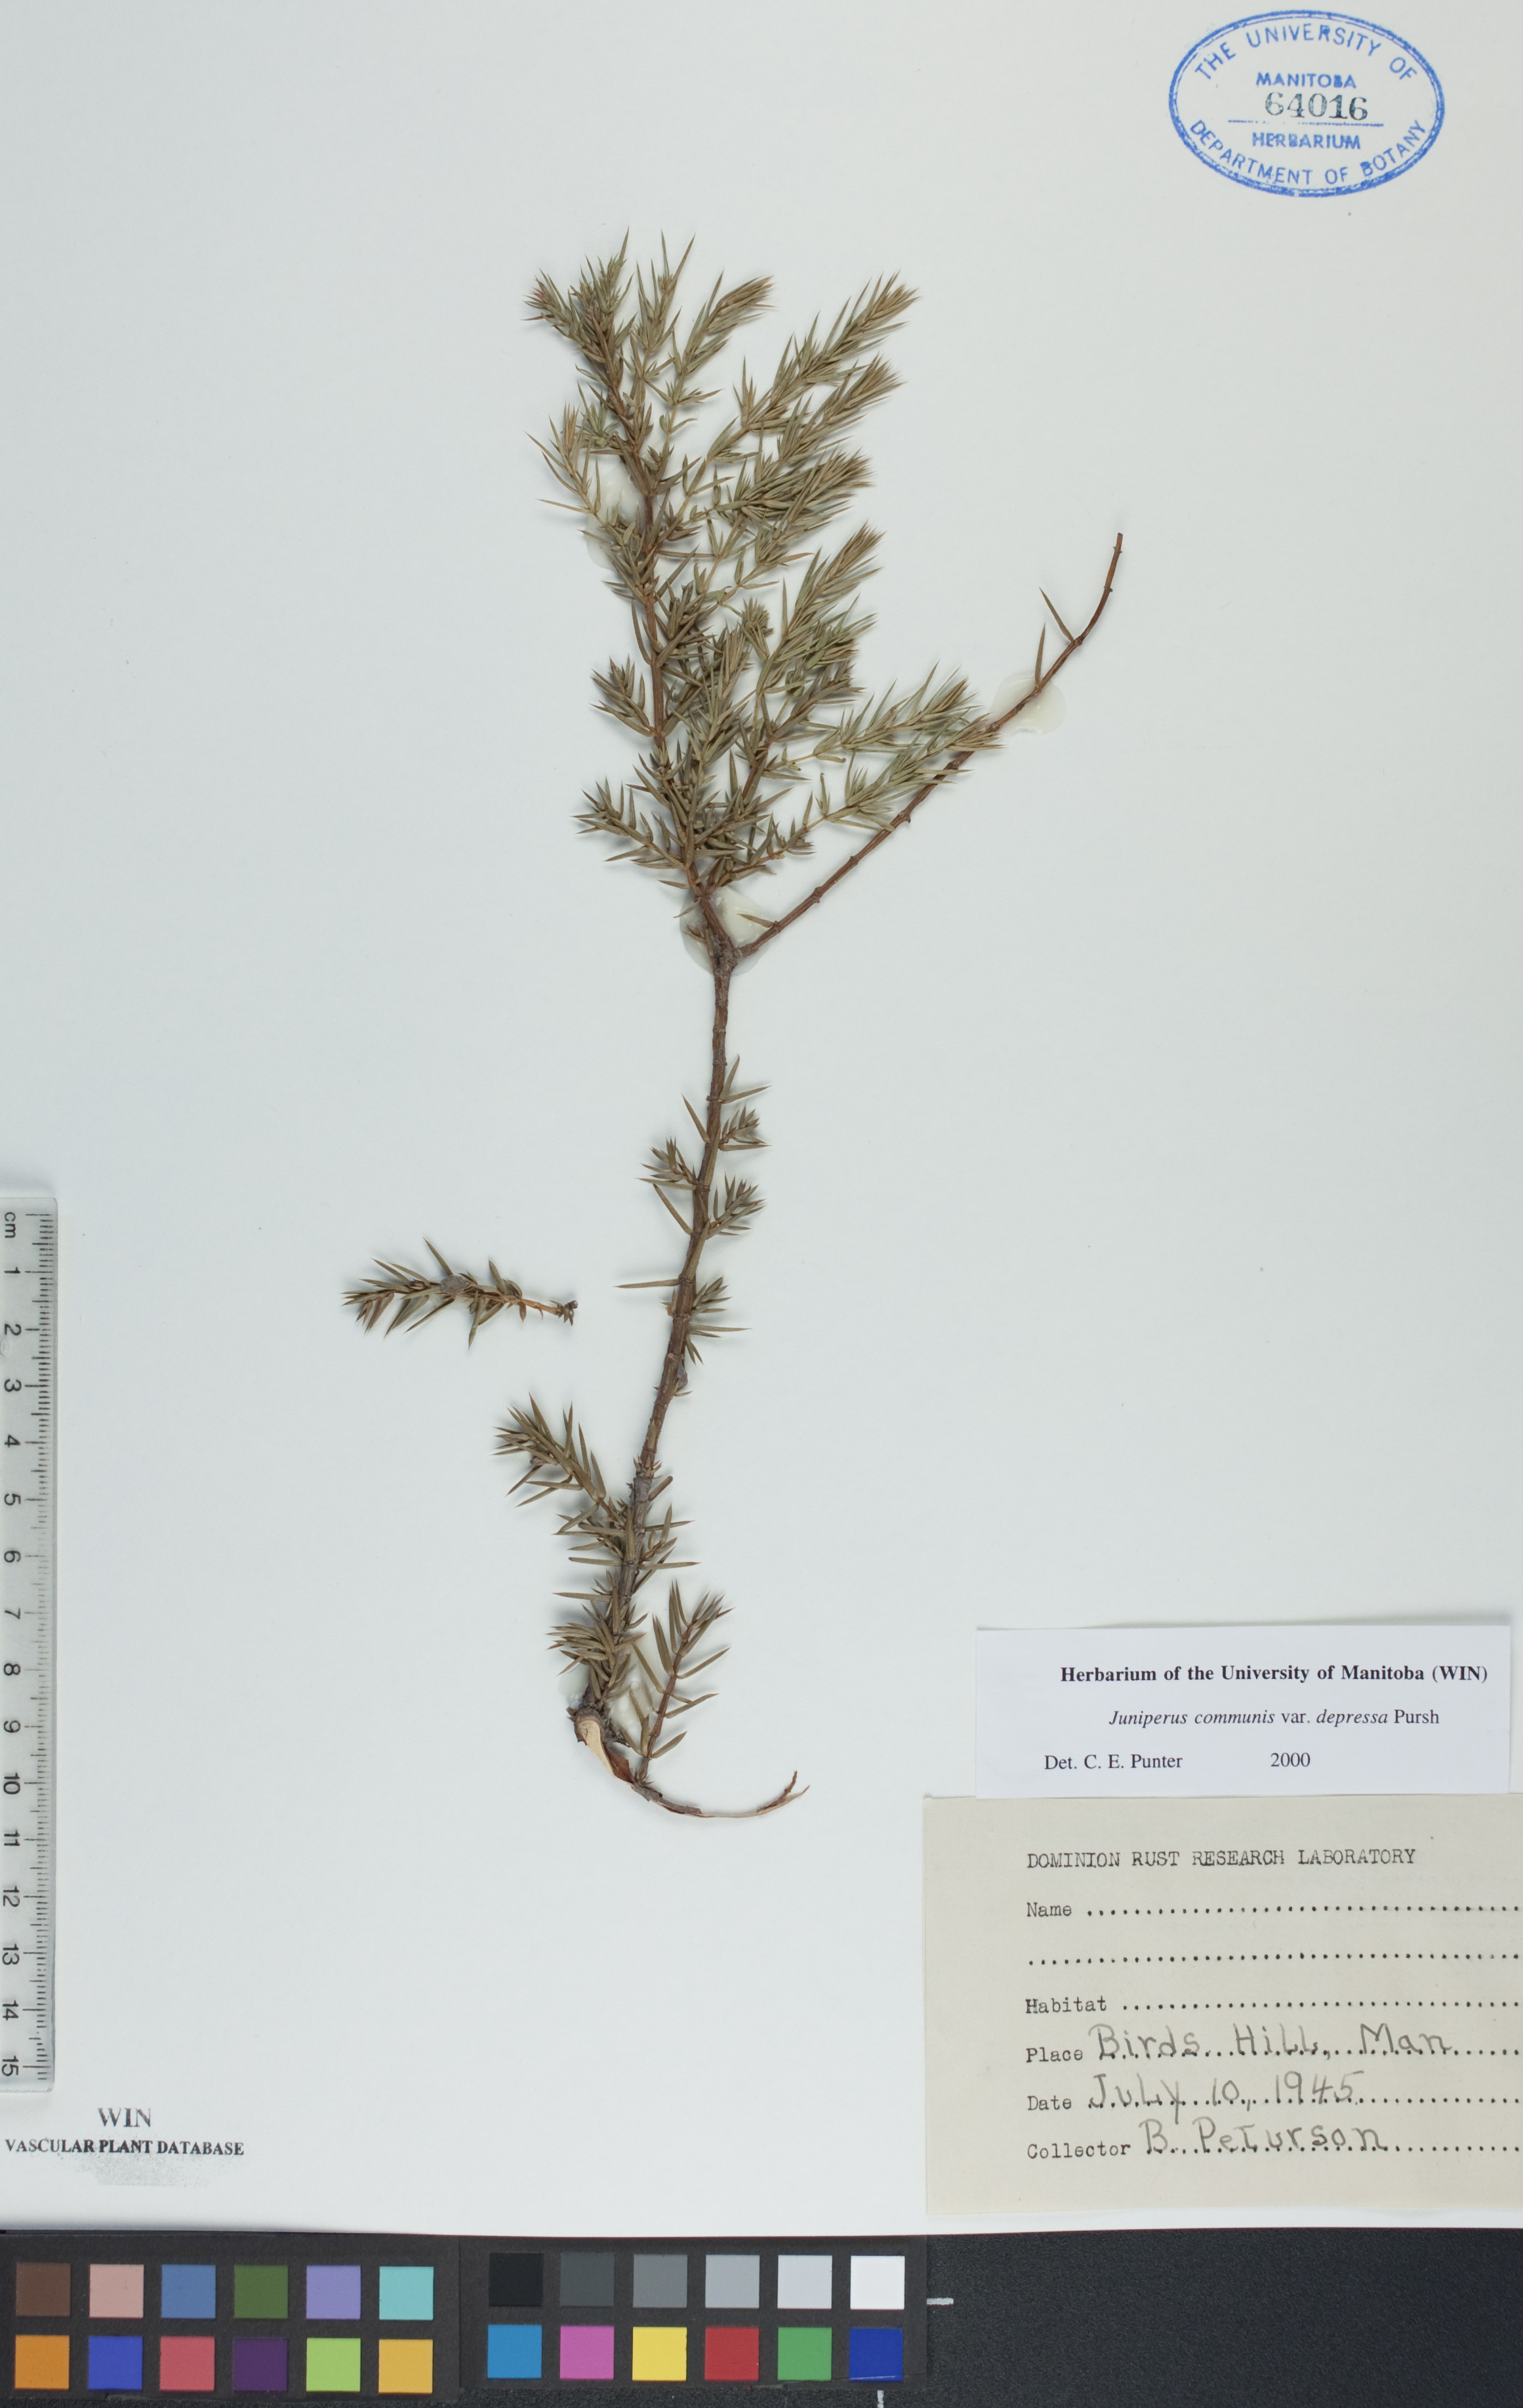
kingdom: Plantae
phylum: Tracheophyta
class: Pinopsida
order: Pinales
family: Cupressaceae
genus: Juniperus
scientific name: Juniperus communis
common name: Common juniper
